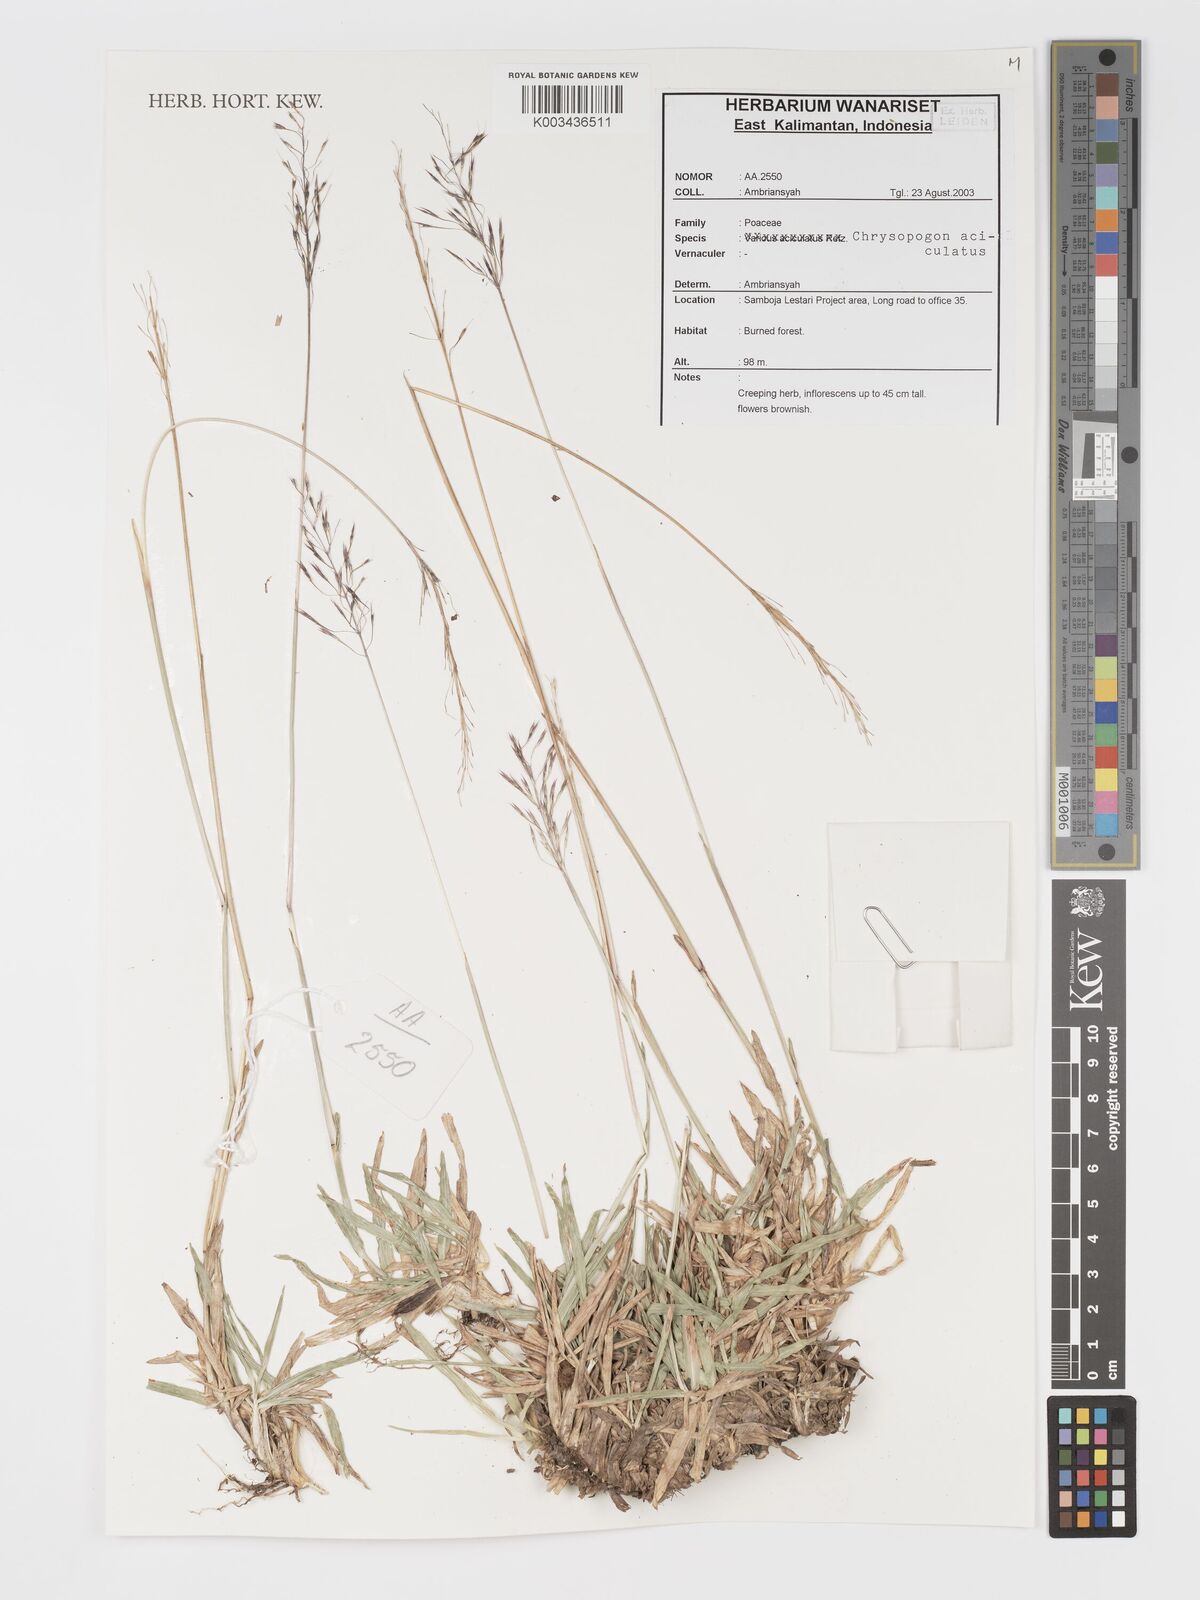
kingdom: Plantae
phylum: Tracheophyta
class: Liliopsida
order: Poales
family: Poaceae
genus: Chrysopogon
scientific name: Chrysopogon aciculatus
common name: Pilipiliula
